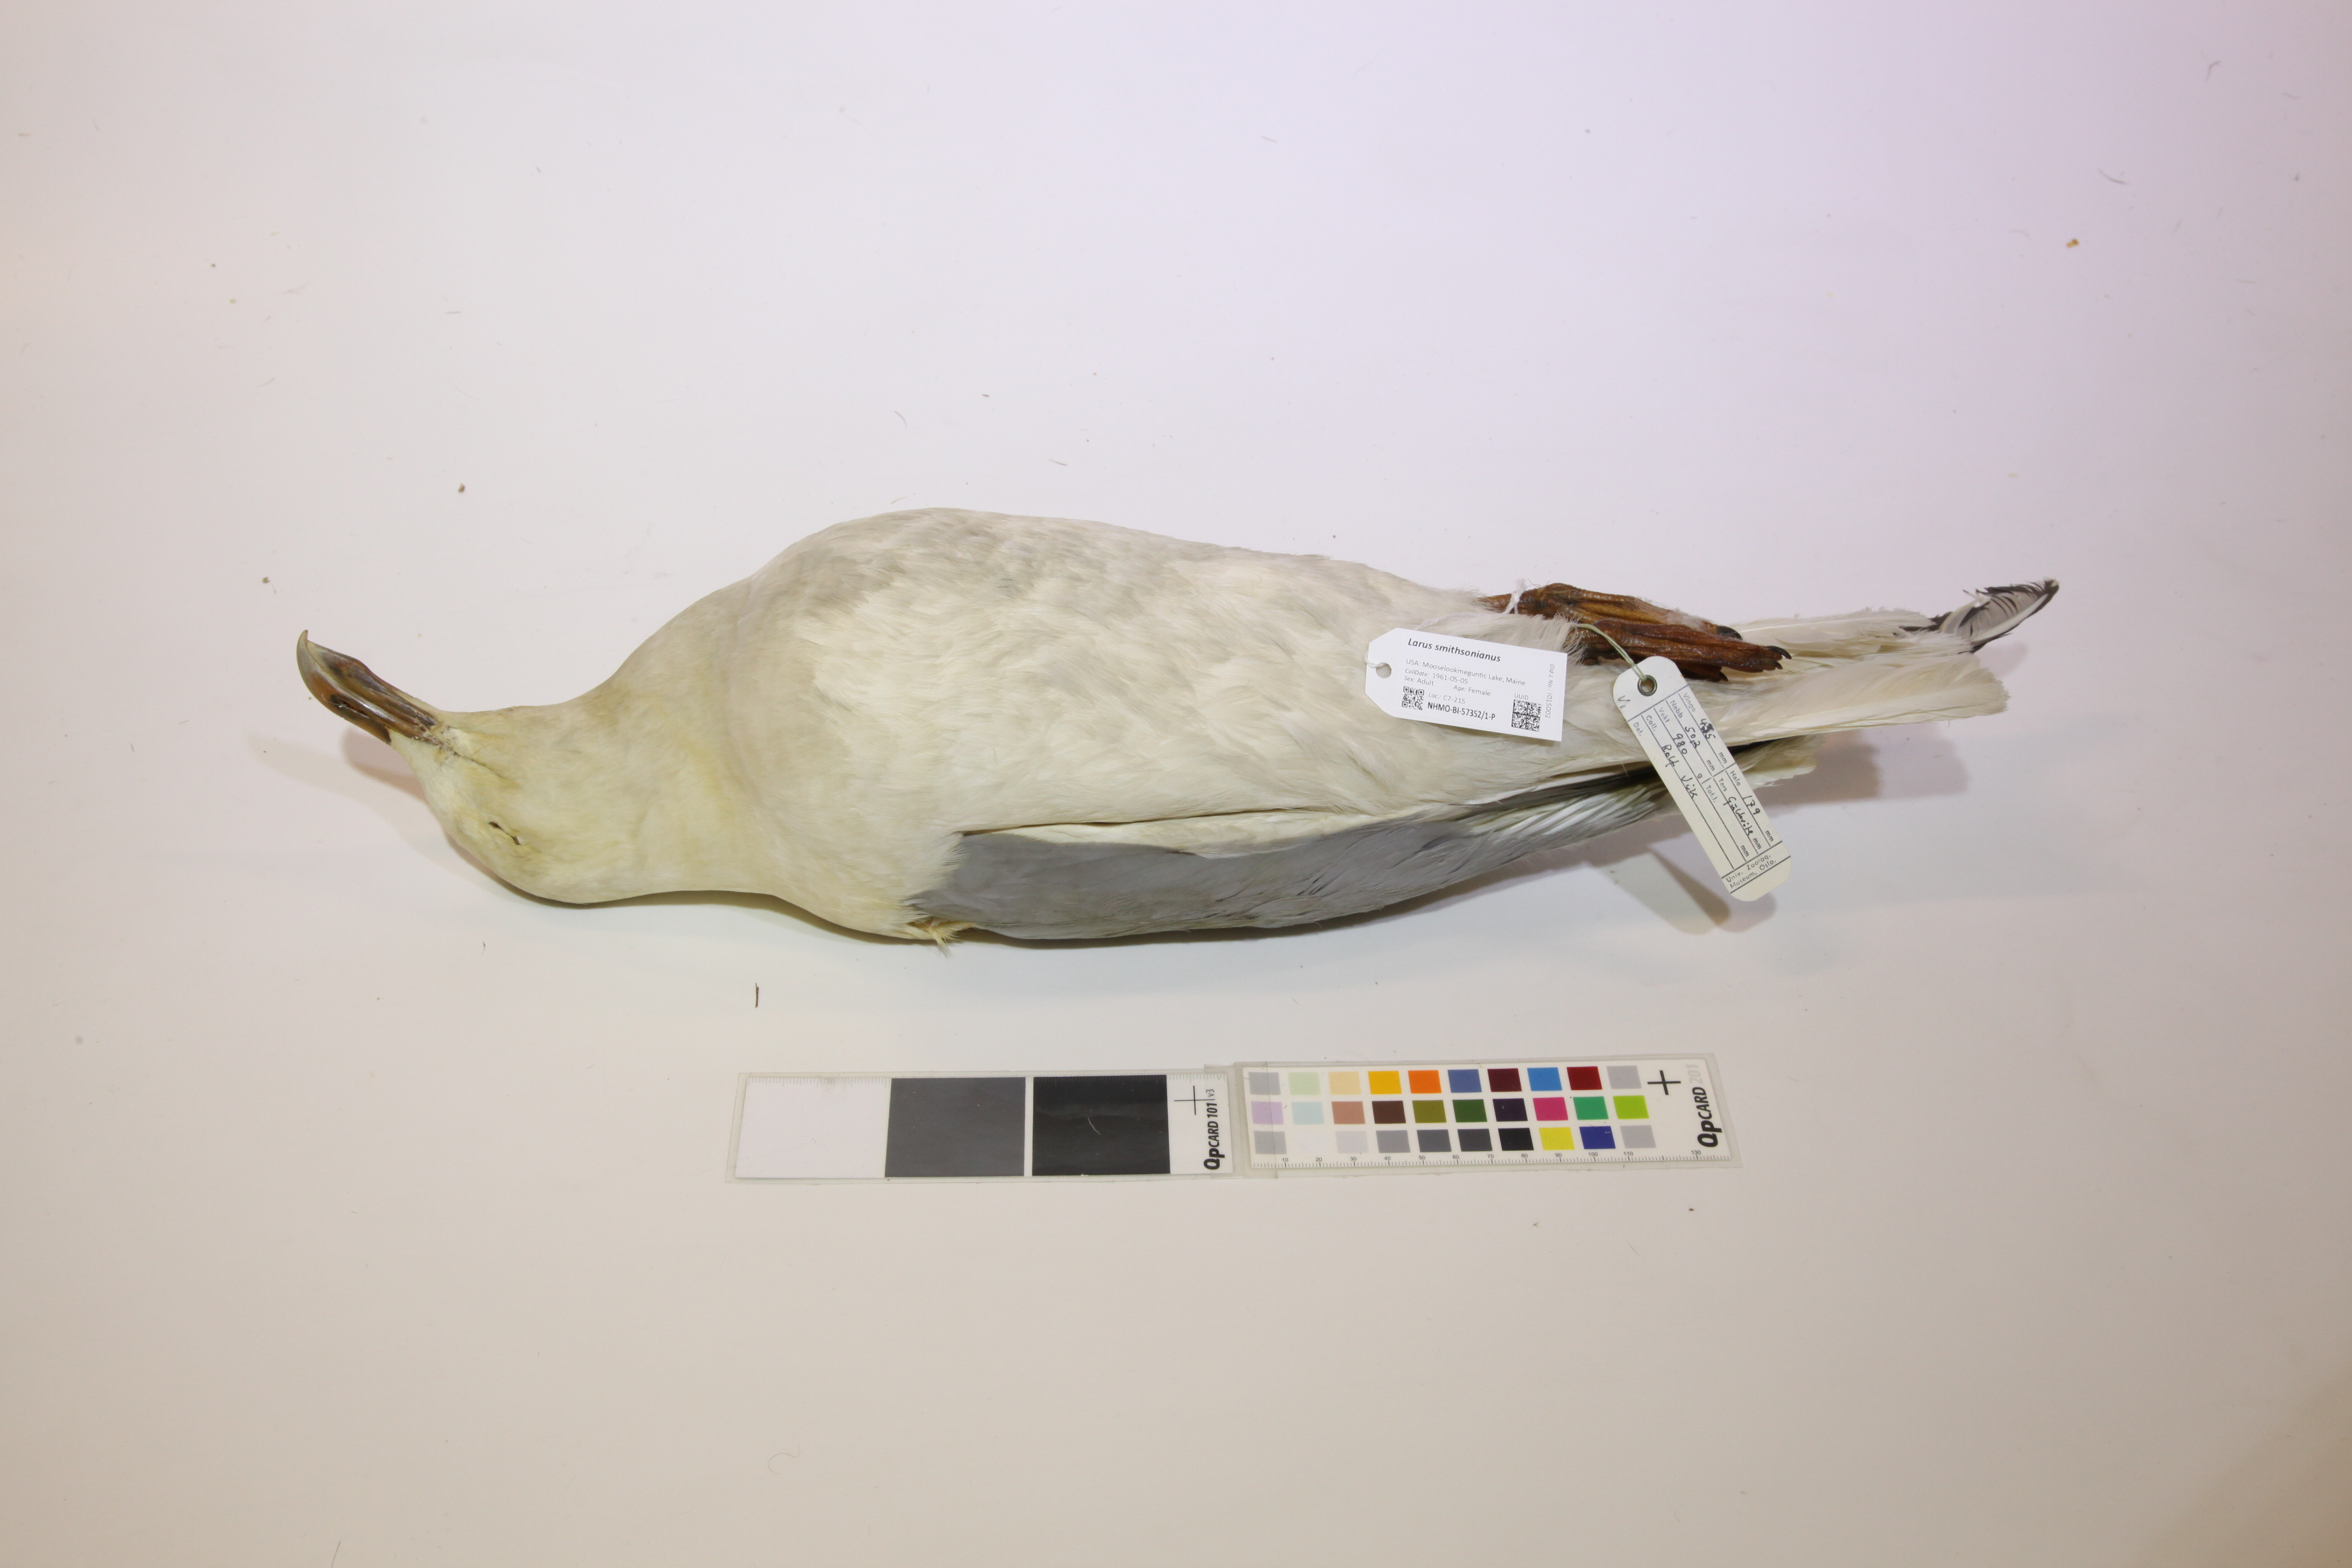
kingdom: Animalia
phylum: Chordata
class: Aves
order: Charadriiformes
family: Laridae
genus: Larus
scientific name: Larus smithsonianus
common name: American herring gull
